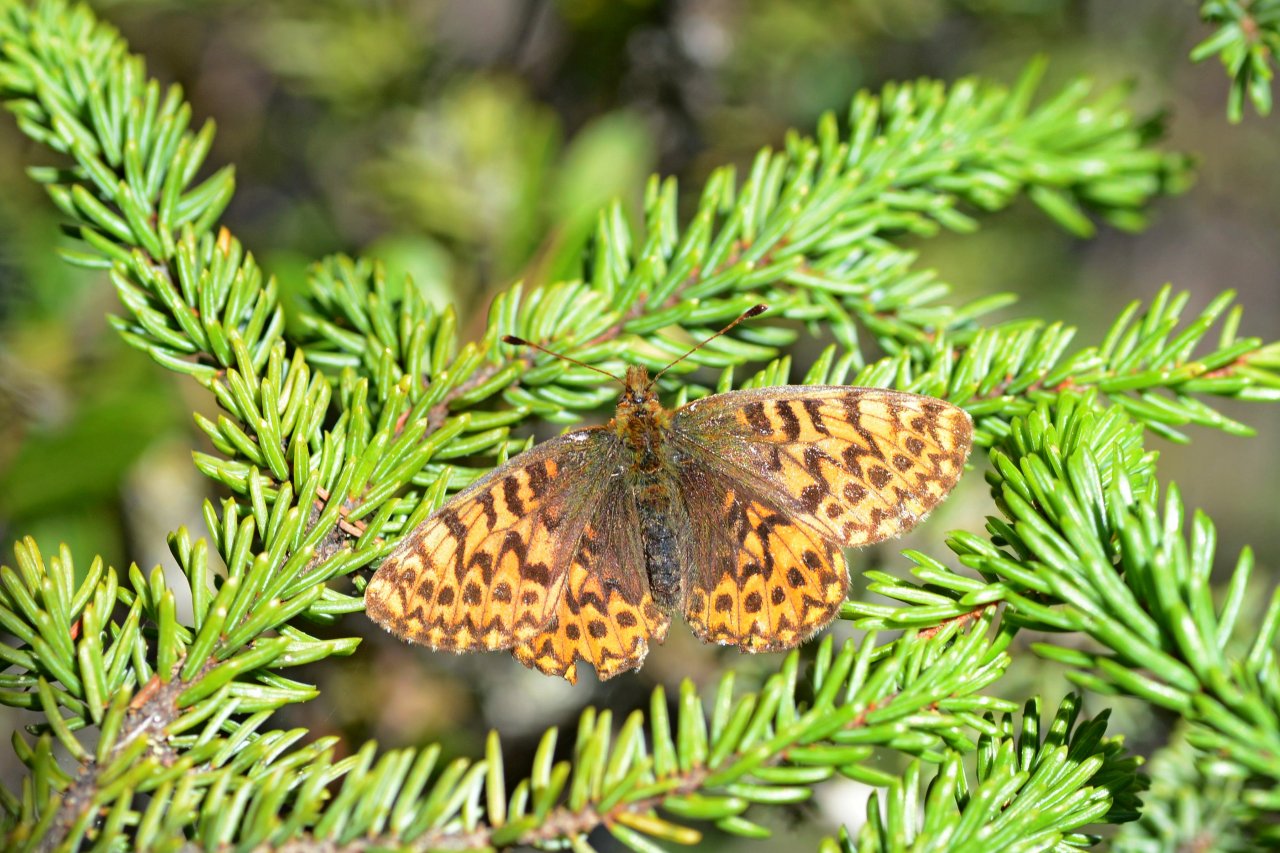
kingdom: Animalia
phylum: Arthropoda
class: Insecta
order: Lepidoptera
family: Nymphalidae
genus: Boloria
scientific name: Boloria freija
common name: Freija Fritillary
